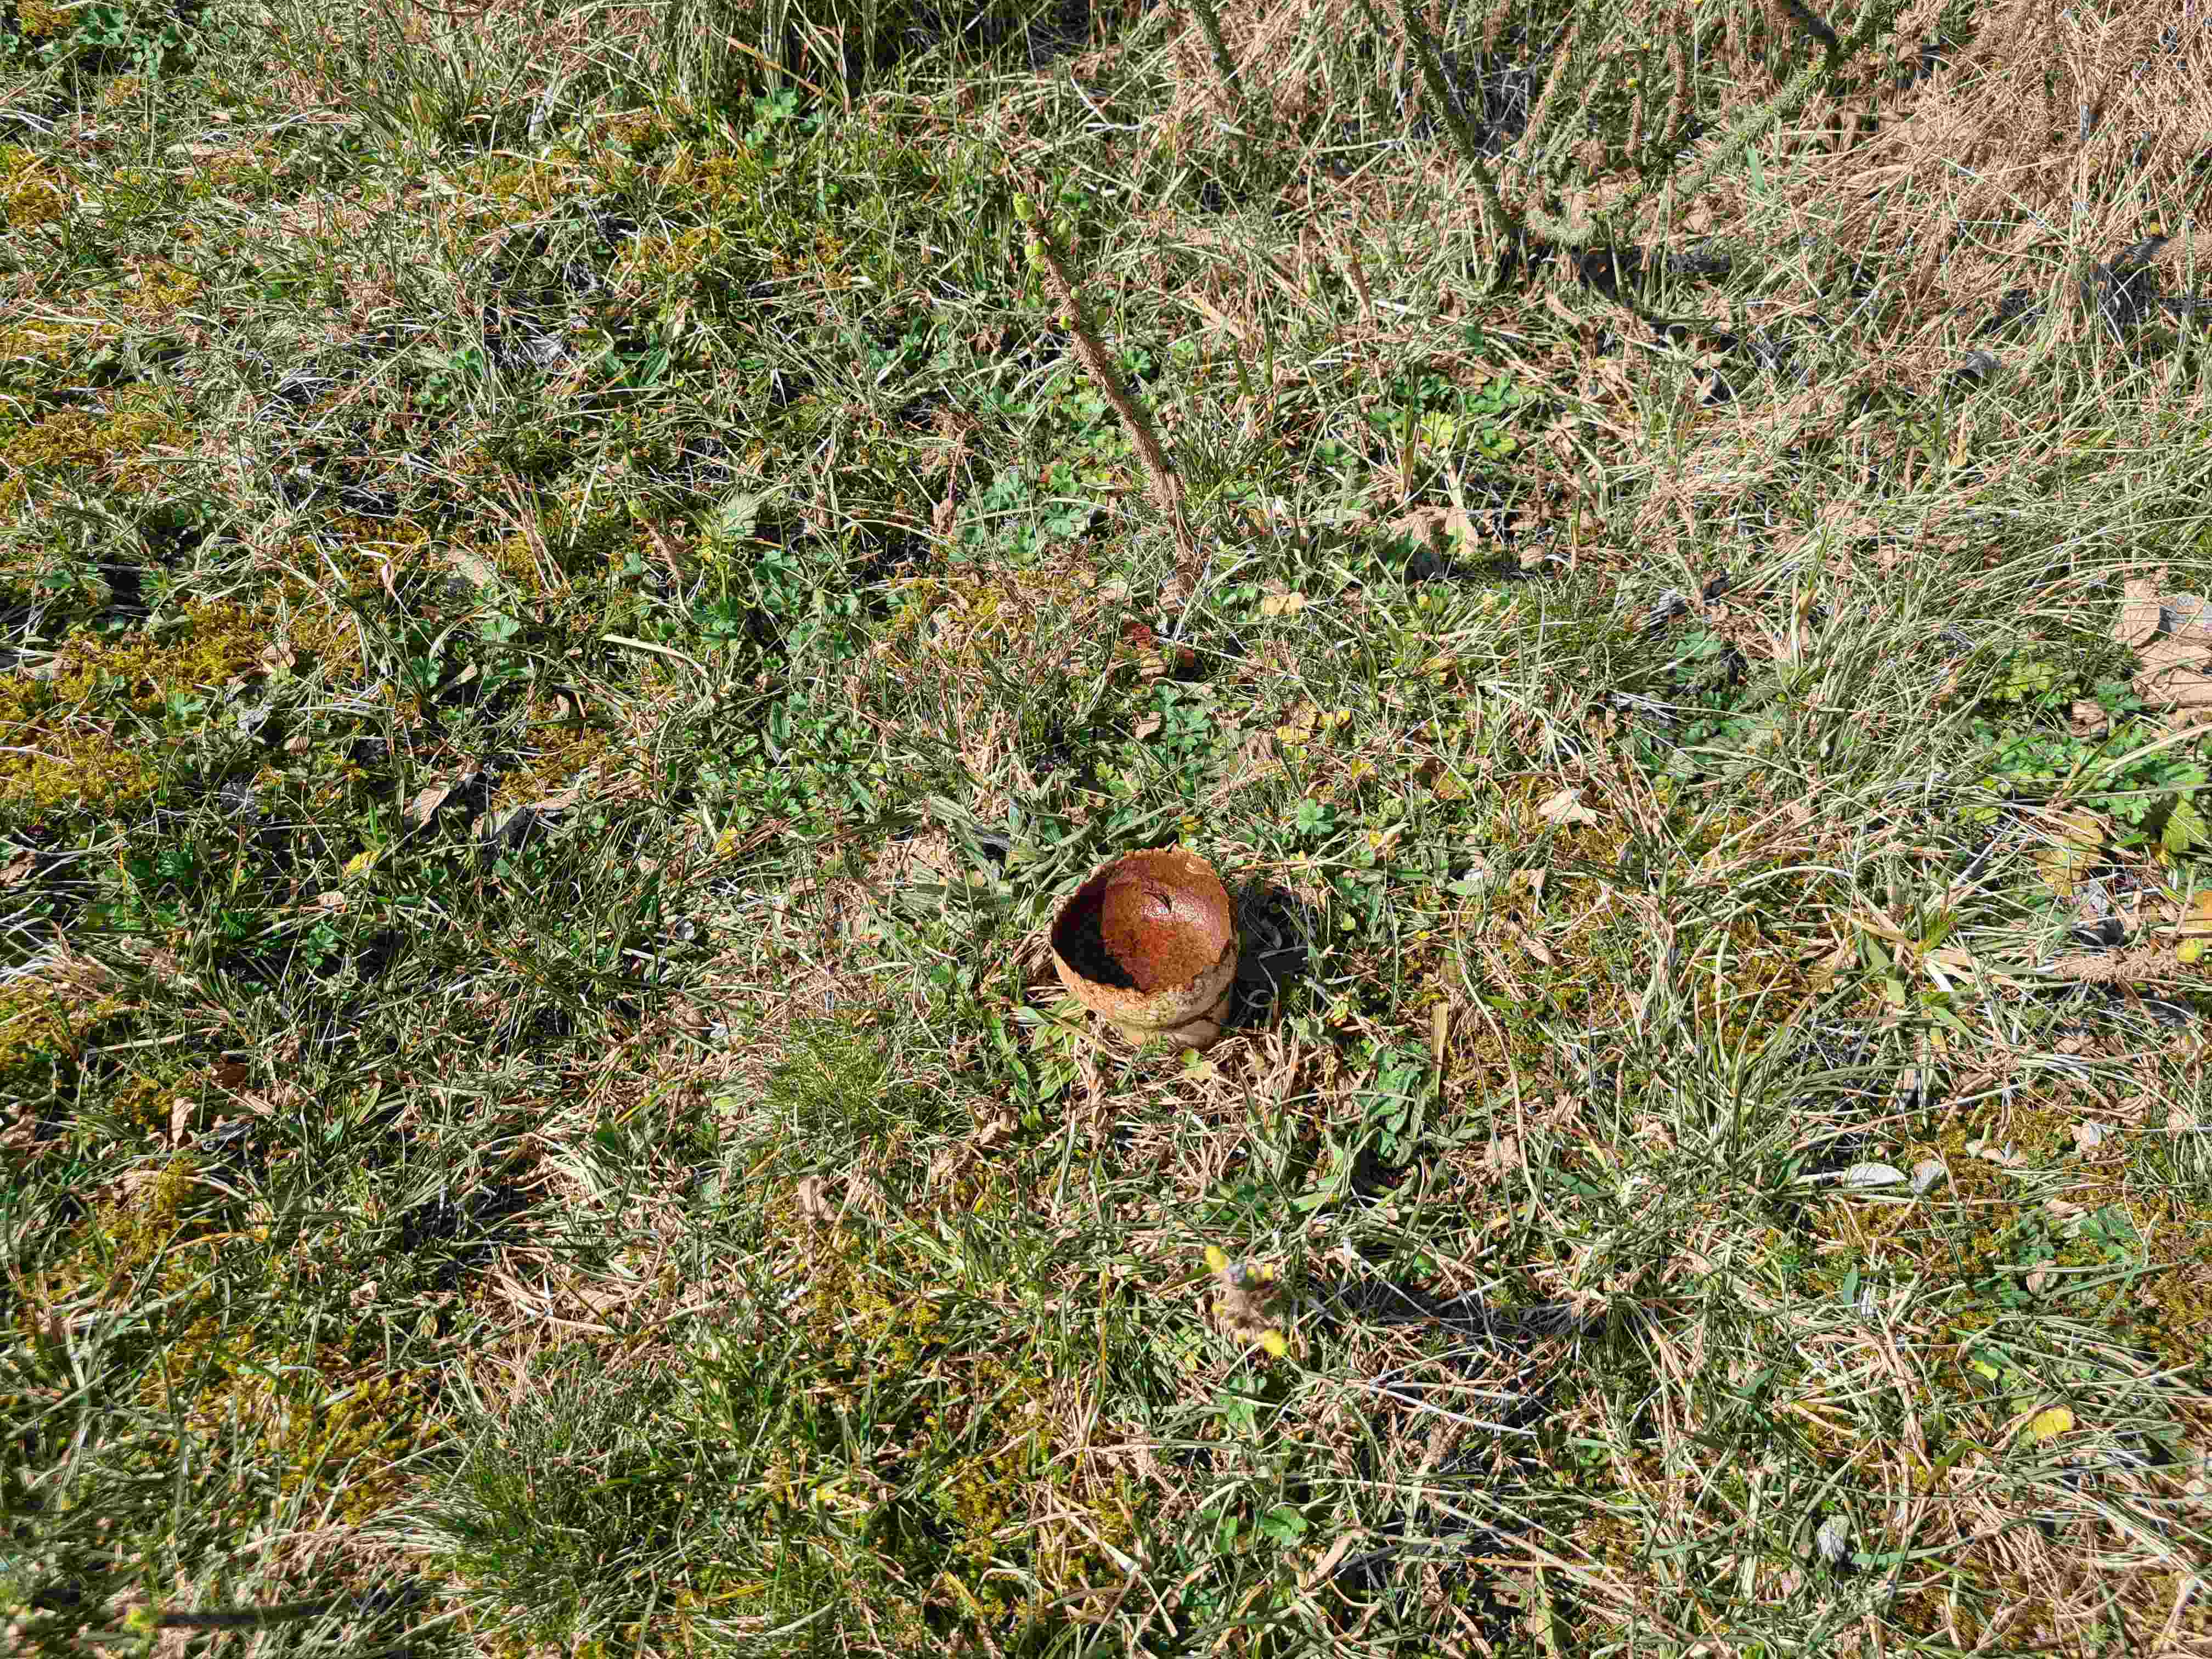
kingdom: Fungi
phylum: Basidiomycota
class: Agaricomycetes
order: Agaricales
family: Lycoperdaceae
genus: Bovistella
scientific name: Bovistella utriformis
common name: skællet støvbold
